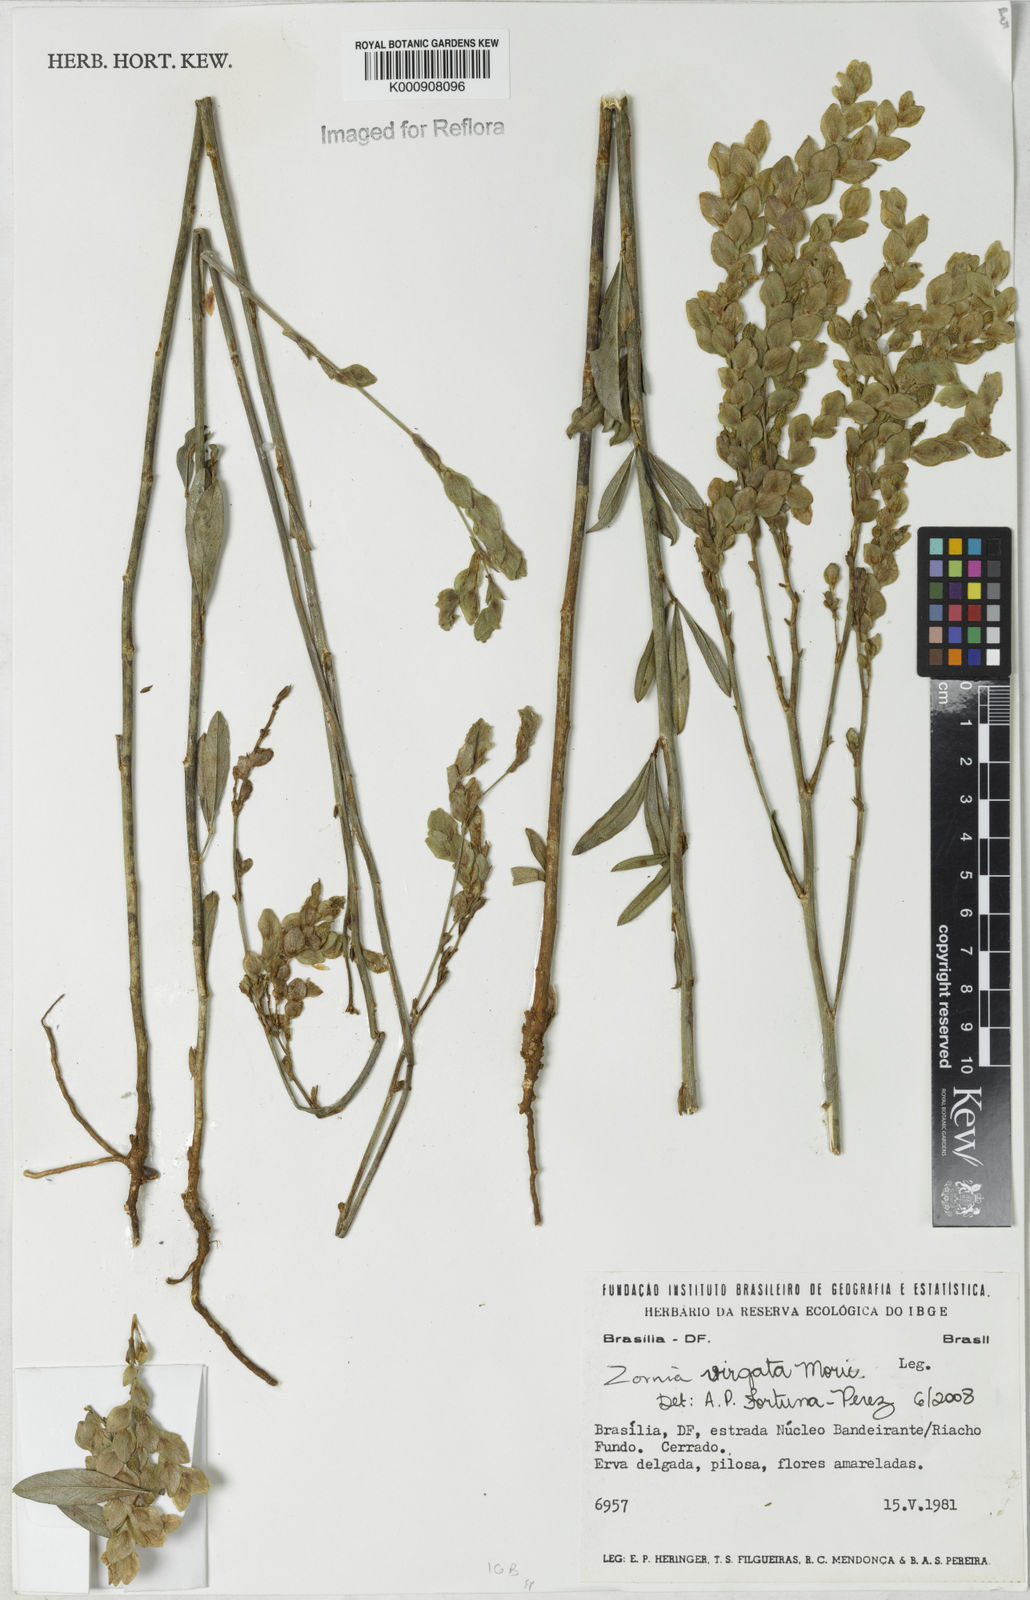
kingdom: Plantae
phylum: Tracheophyta
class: Magnoliopsida
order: Fabales
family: Fabaceae
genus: Zornia
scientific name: Zornia virgata
